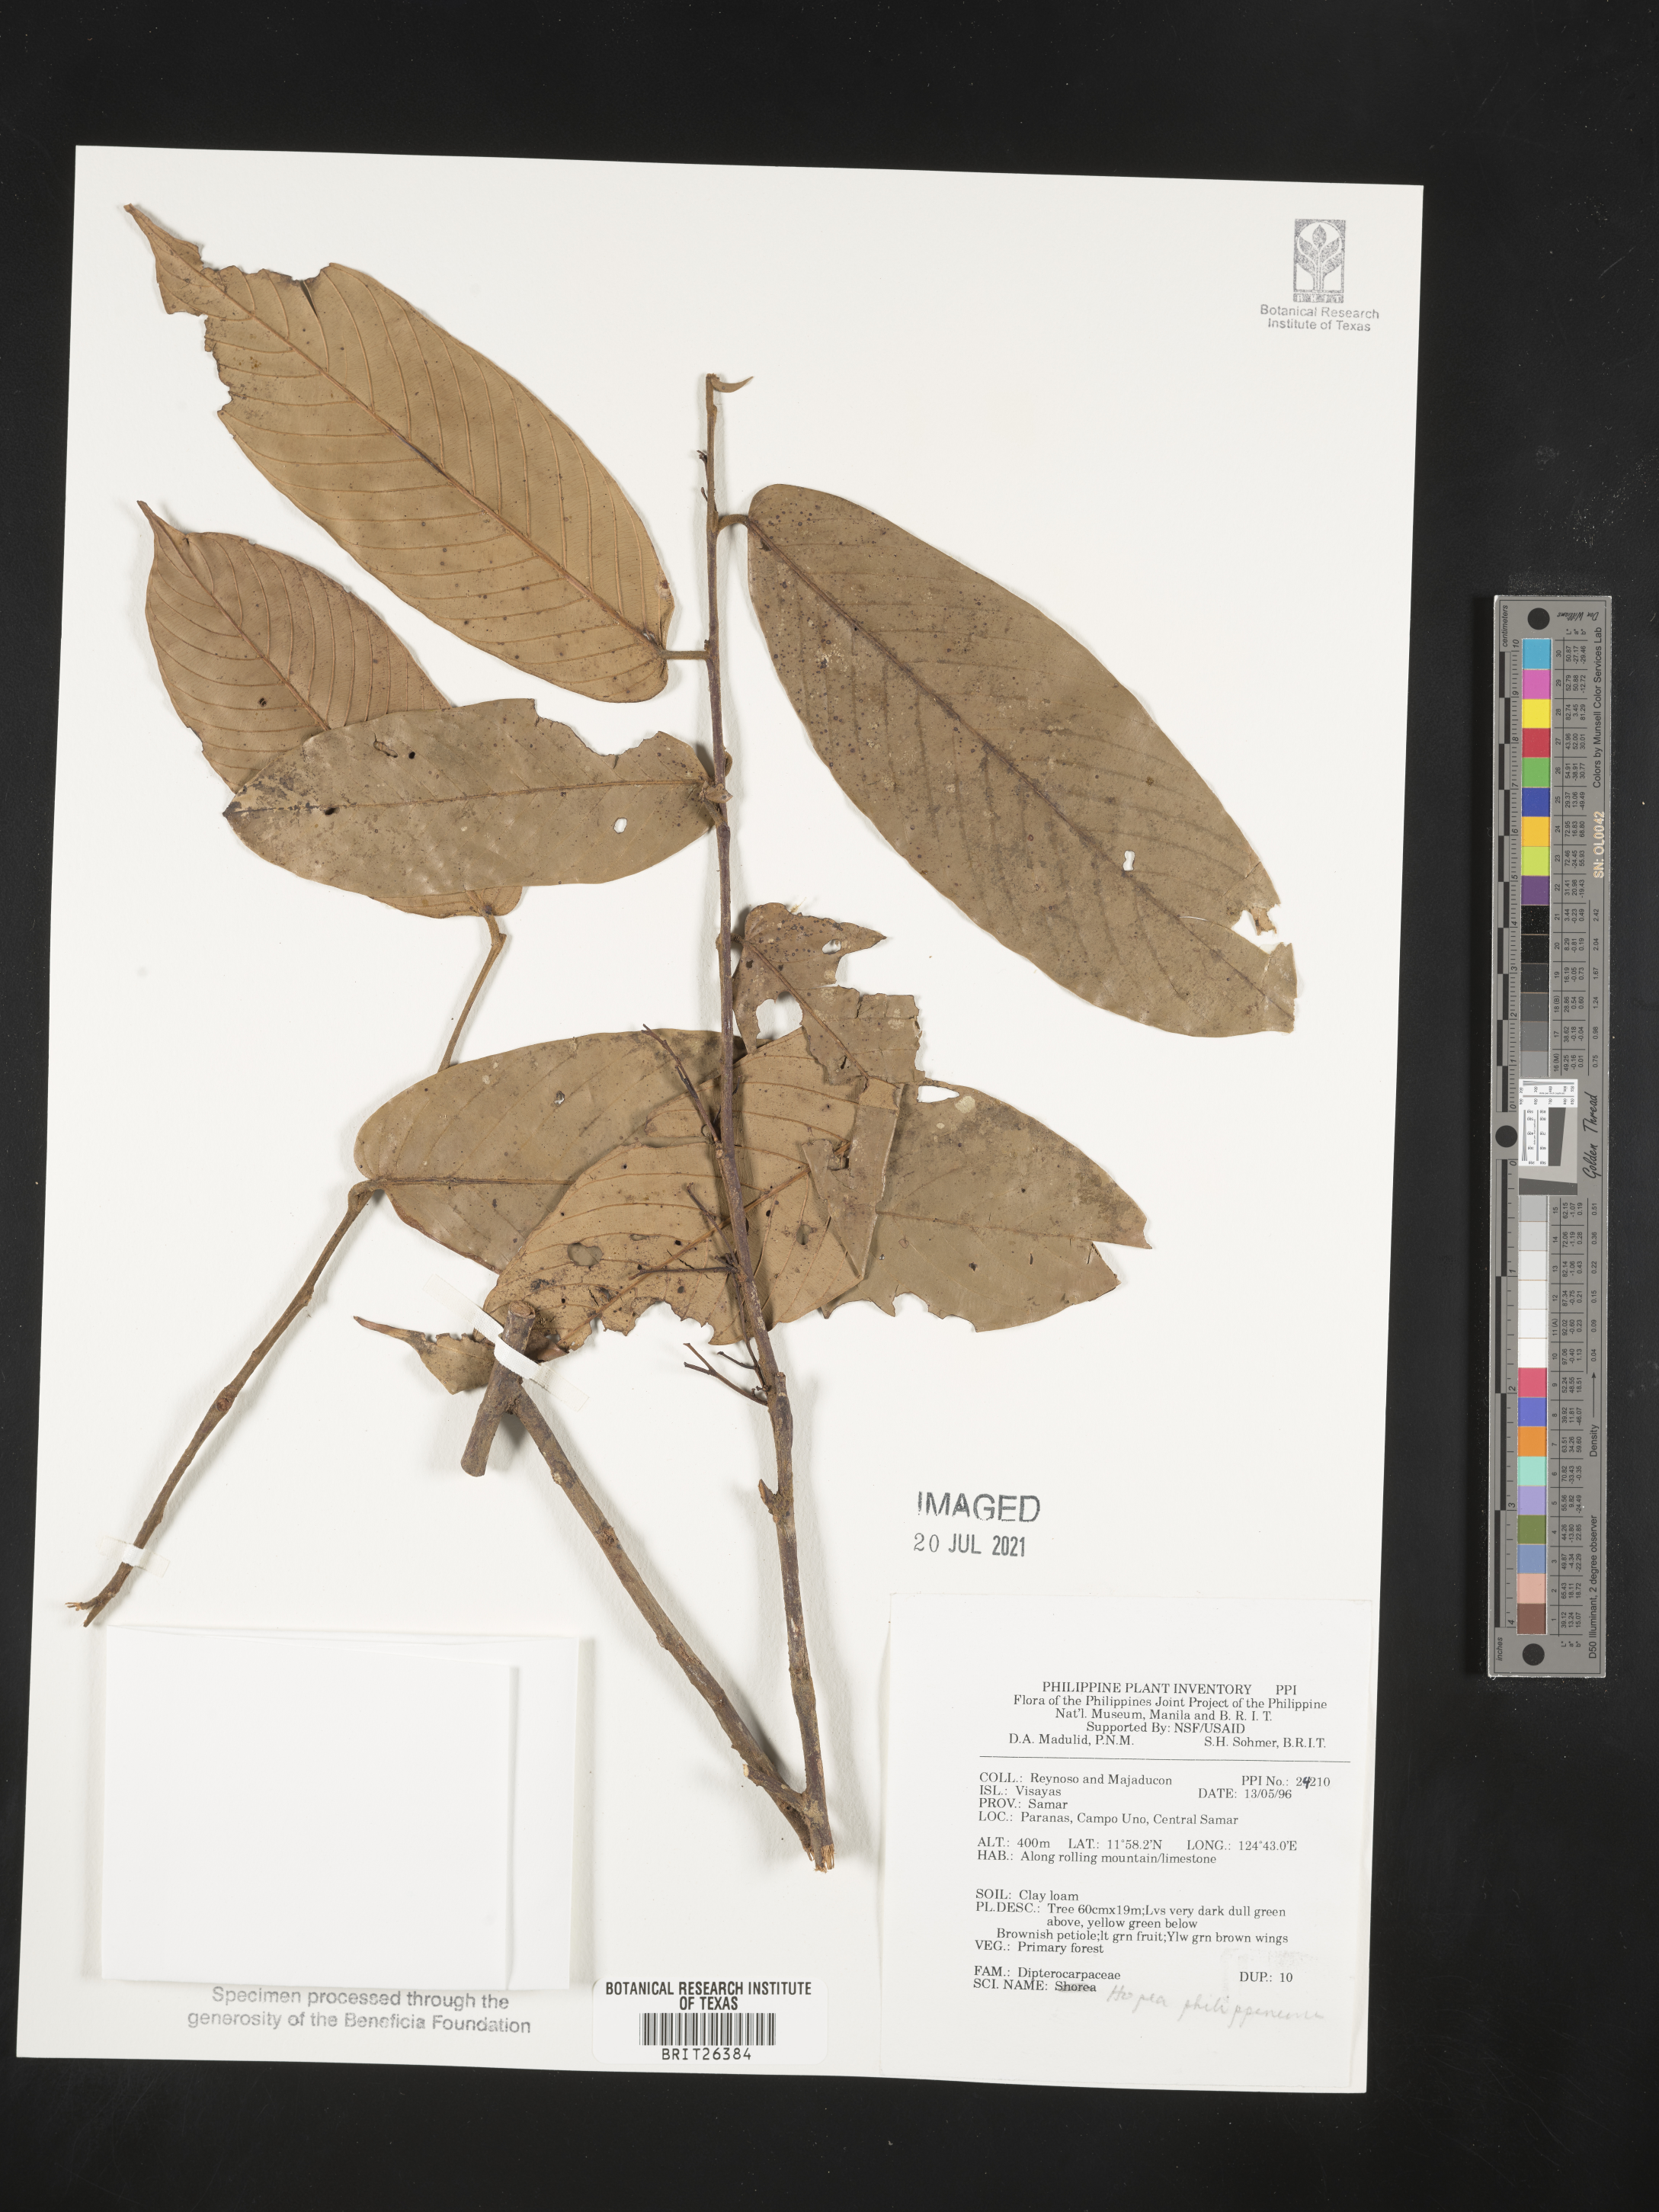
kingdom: Plantae
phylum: Tracheophyta
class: Magnoliopsida
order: Malvales
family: Dipterocarpaceae
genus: Hopea
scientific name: Hopea philippinensis
